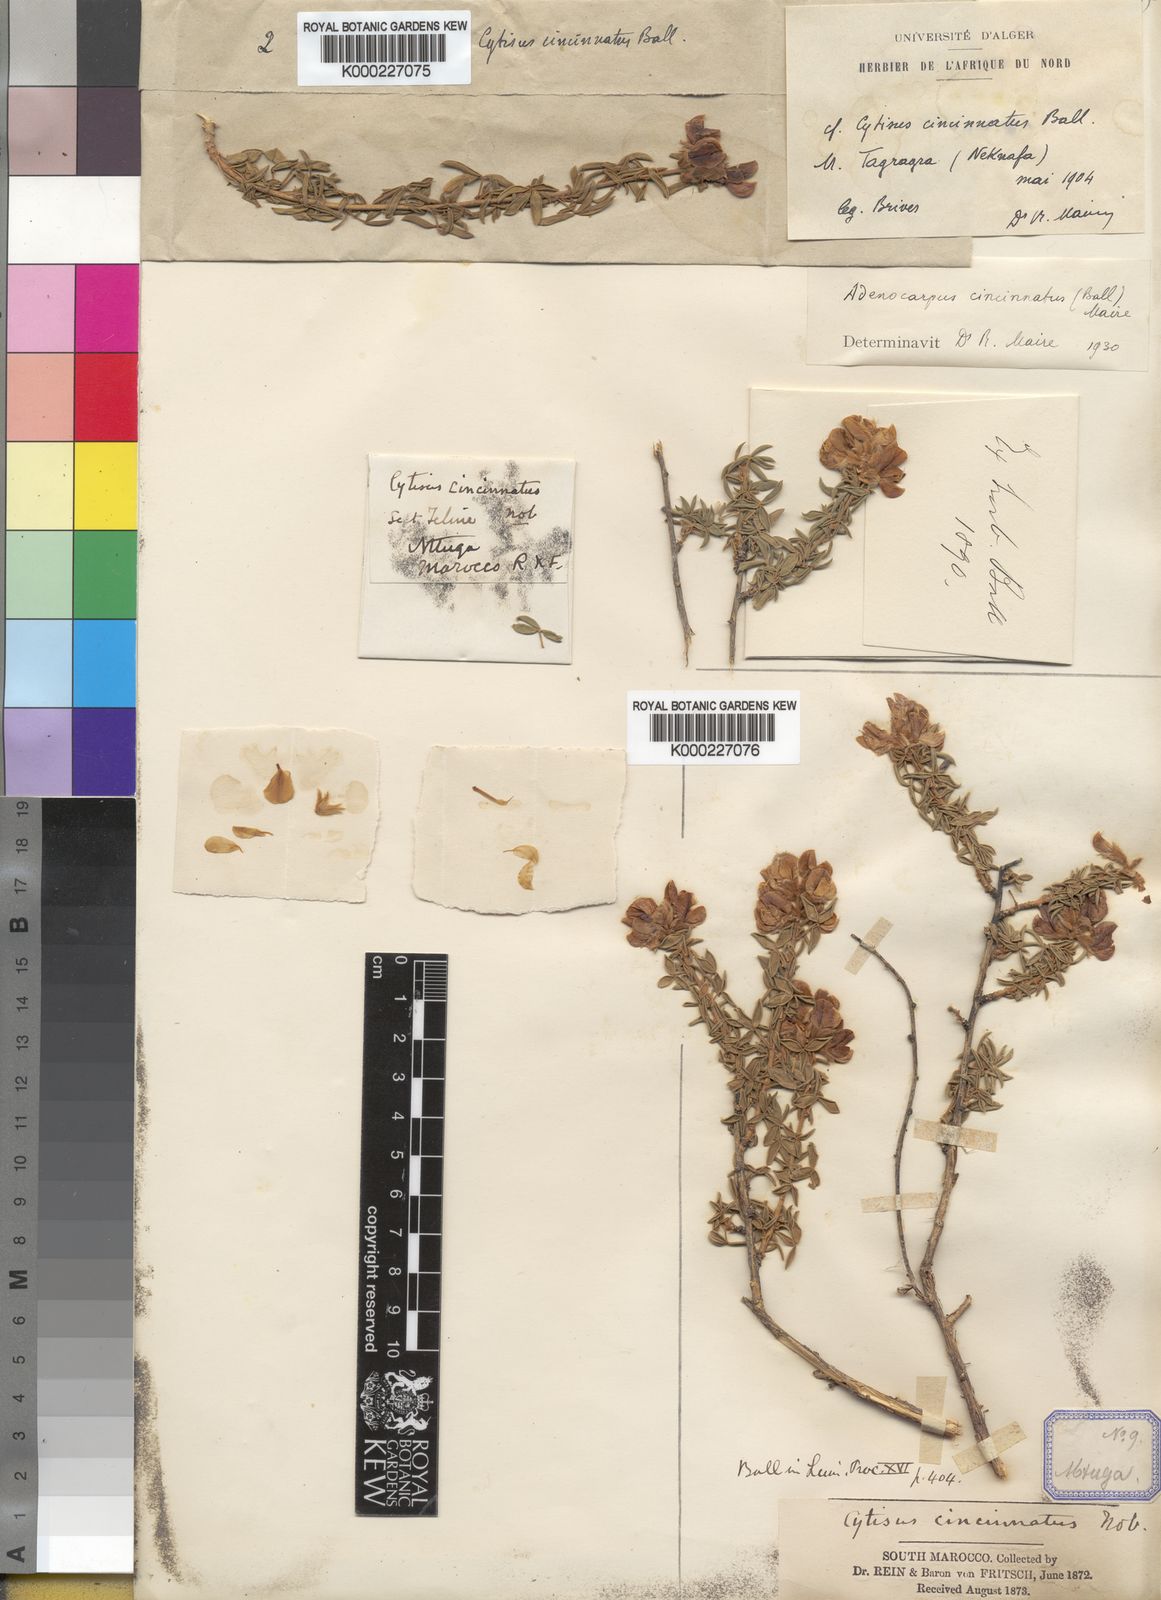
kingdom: Plantae
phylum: Tracheophyta
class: Magnoliopsida
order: Fabales
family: Fabaceae
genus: Adenocarpus
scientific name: Adenocarpus cincinnatus
